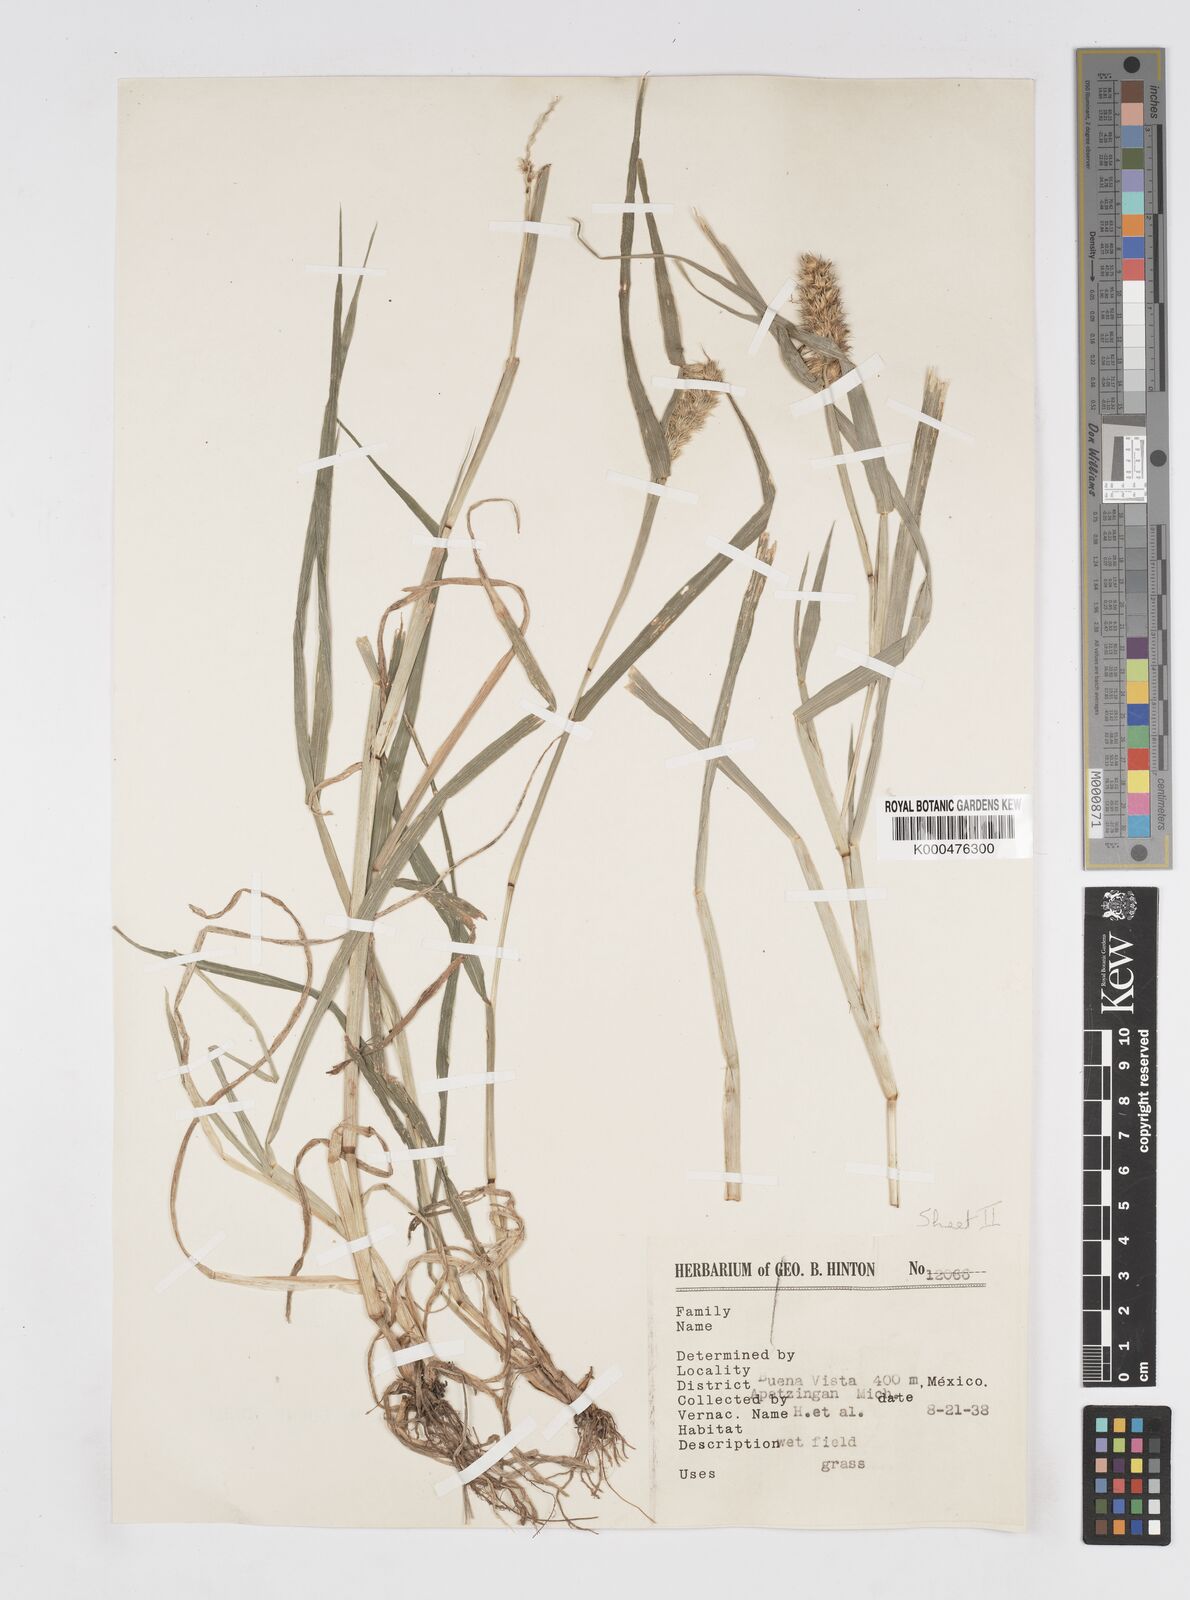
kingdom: Plantae
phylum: Tracheophyta
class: Liliopsida
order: Poales
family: Poaceae
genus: Cenchrus
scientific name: Cenchrus echinatus
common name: Southern sandbur
